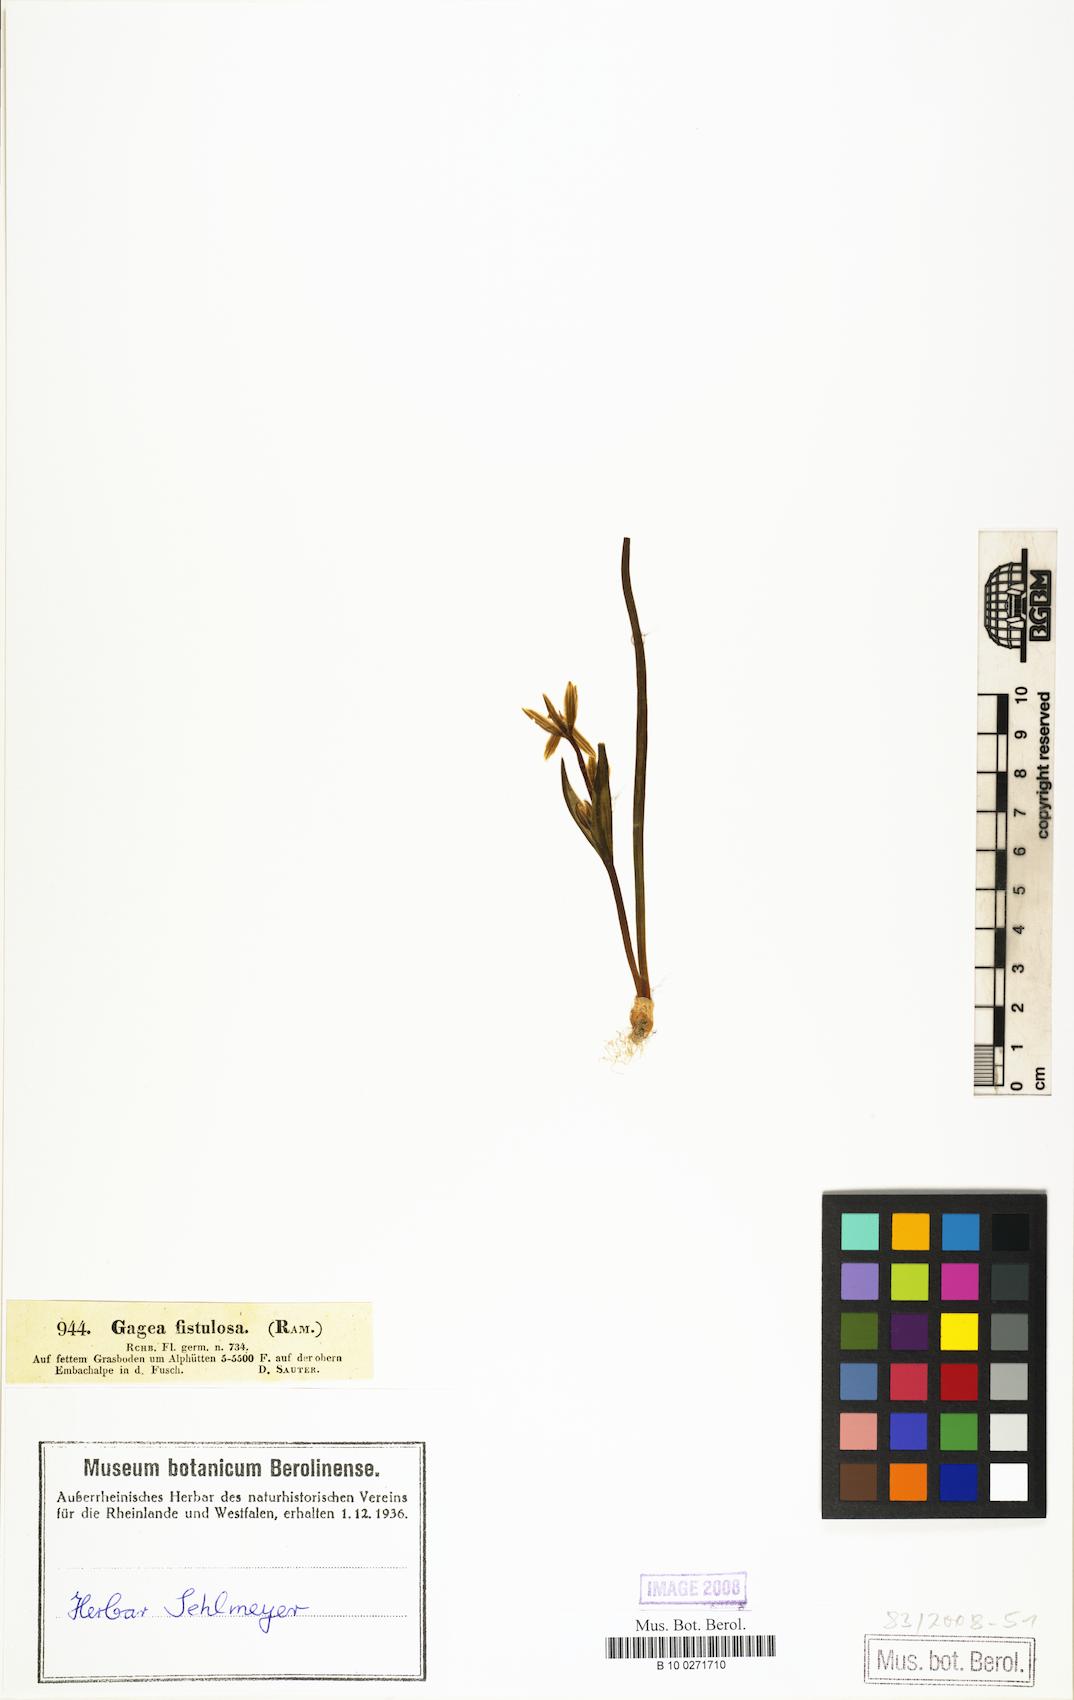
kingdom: Plantae
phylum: Tracheophyta
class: Liliopsida
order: Liliales
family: Liliaceae
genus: Gagea
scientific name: Gagea bohemica
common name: Early star-of-bethlehem
